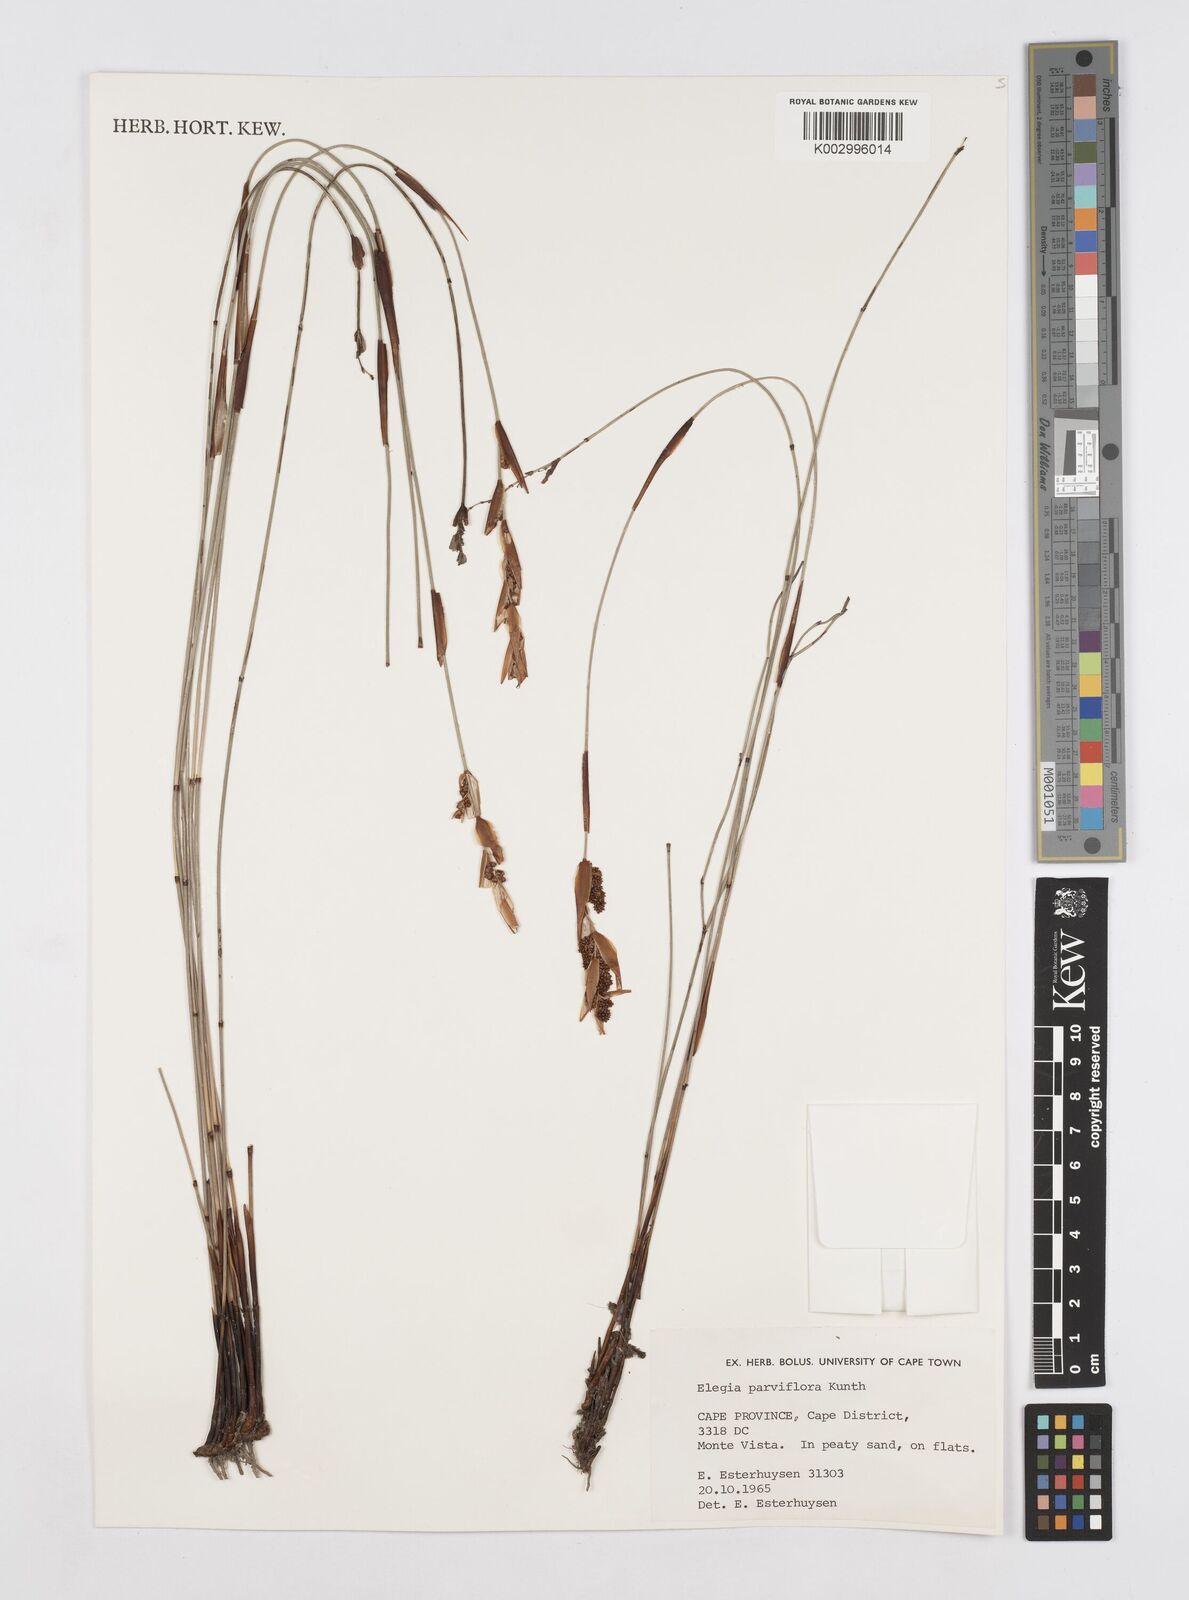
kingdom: Plantae
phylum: Tracheophyta
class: Liliopsida
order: Poales
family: Restionaceae
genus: Cannomois
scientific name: Cannomois parviflora
